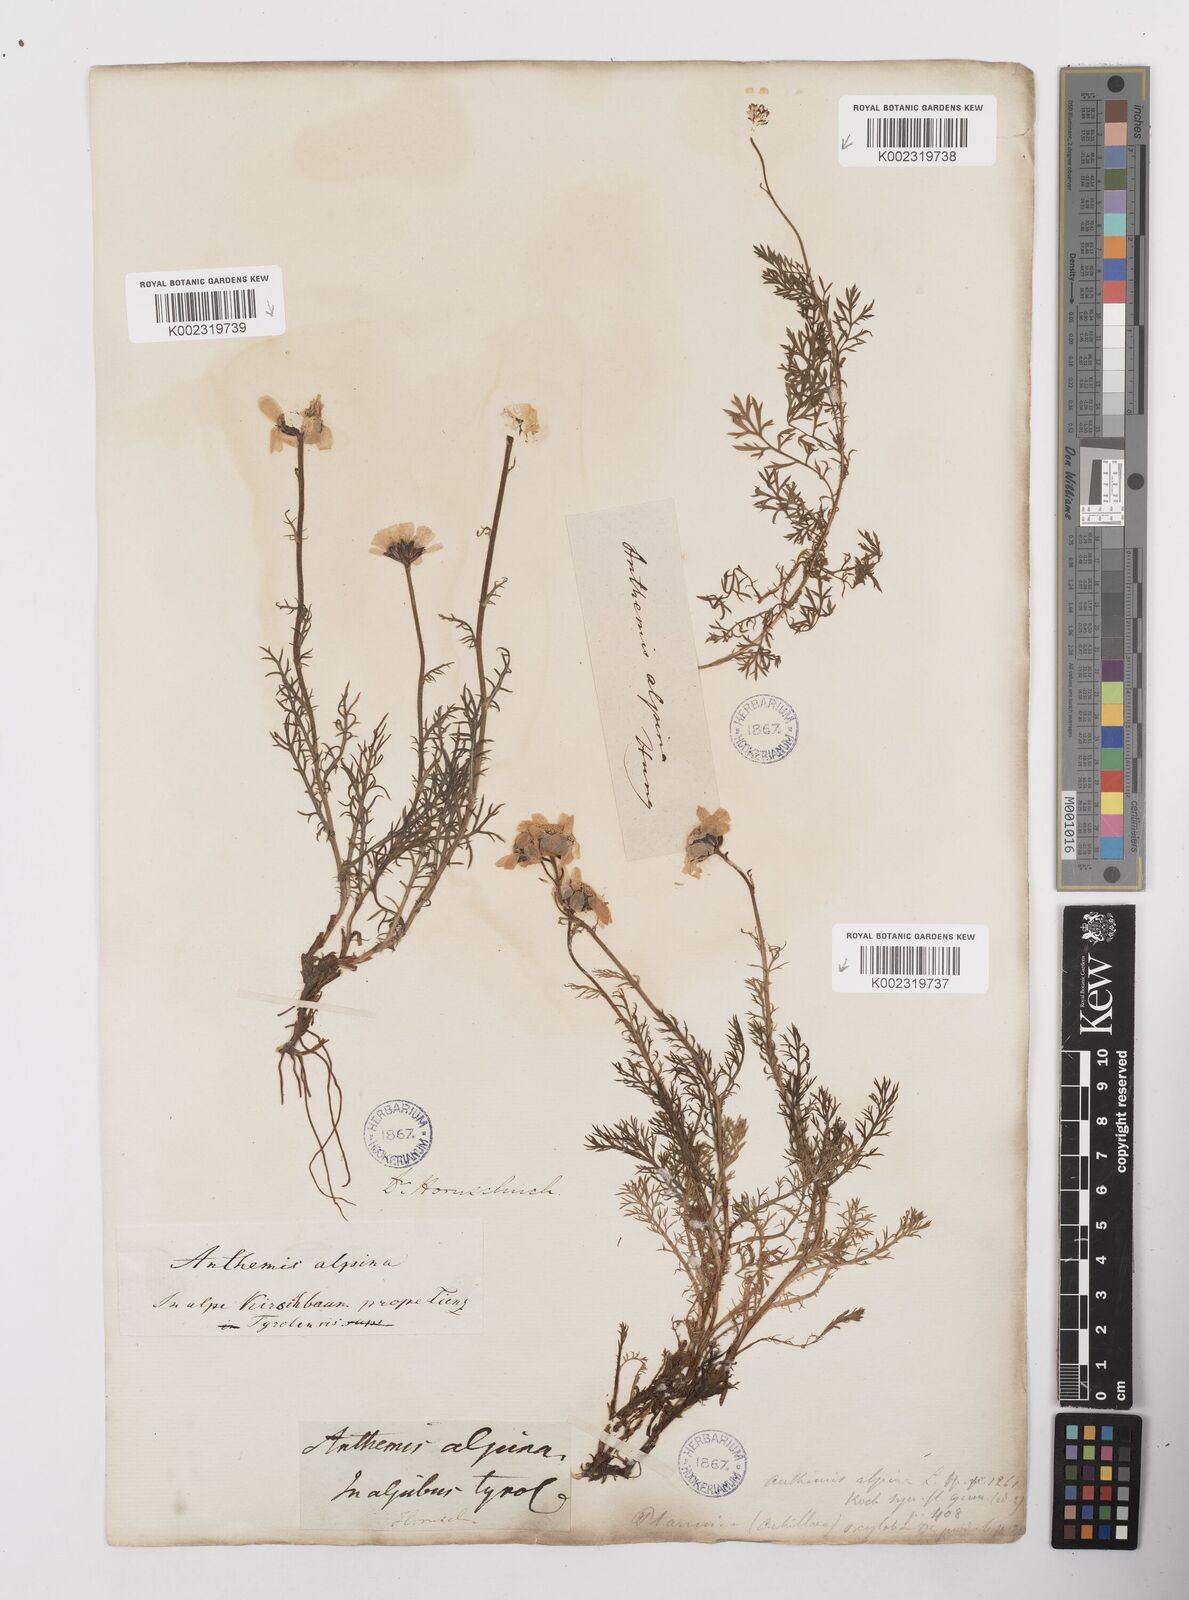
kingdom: Plantae
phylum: Tracheophyta
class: Magnoliopsida
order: Asterales
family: Asteraceae
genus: Achillea
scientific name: Achillea oxyloba
